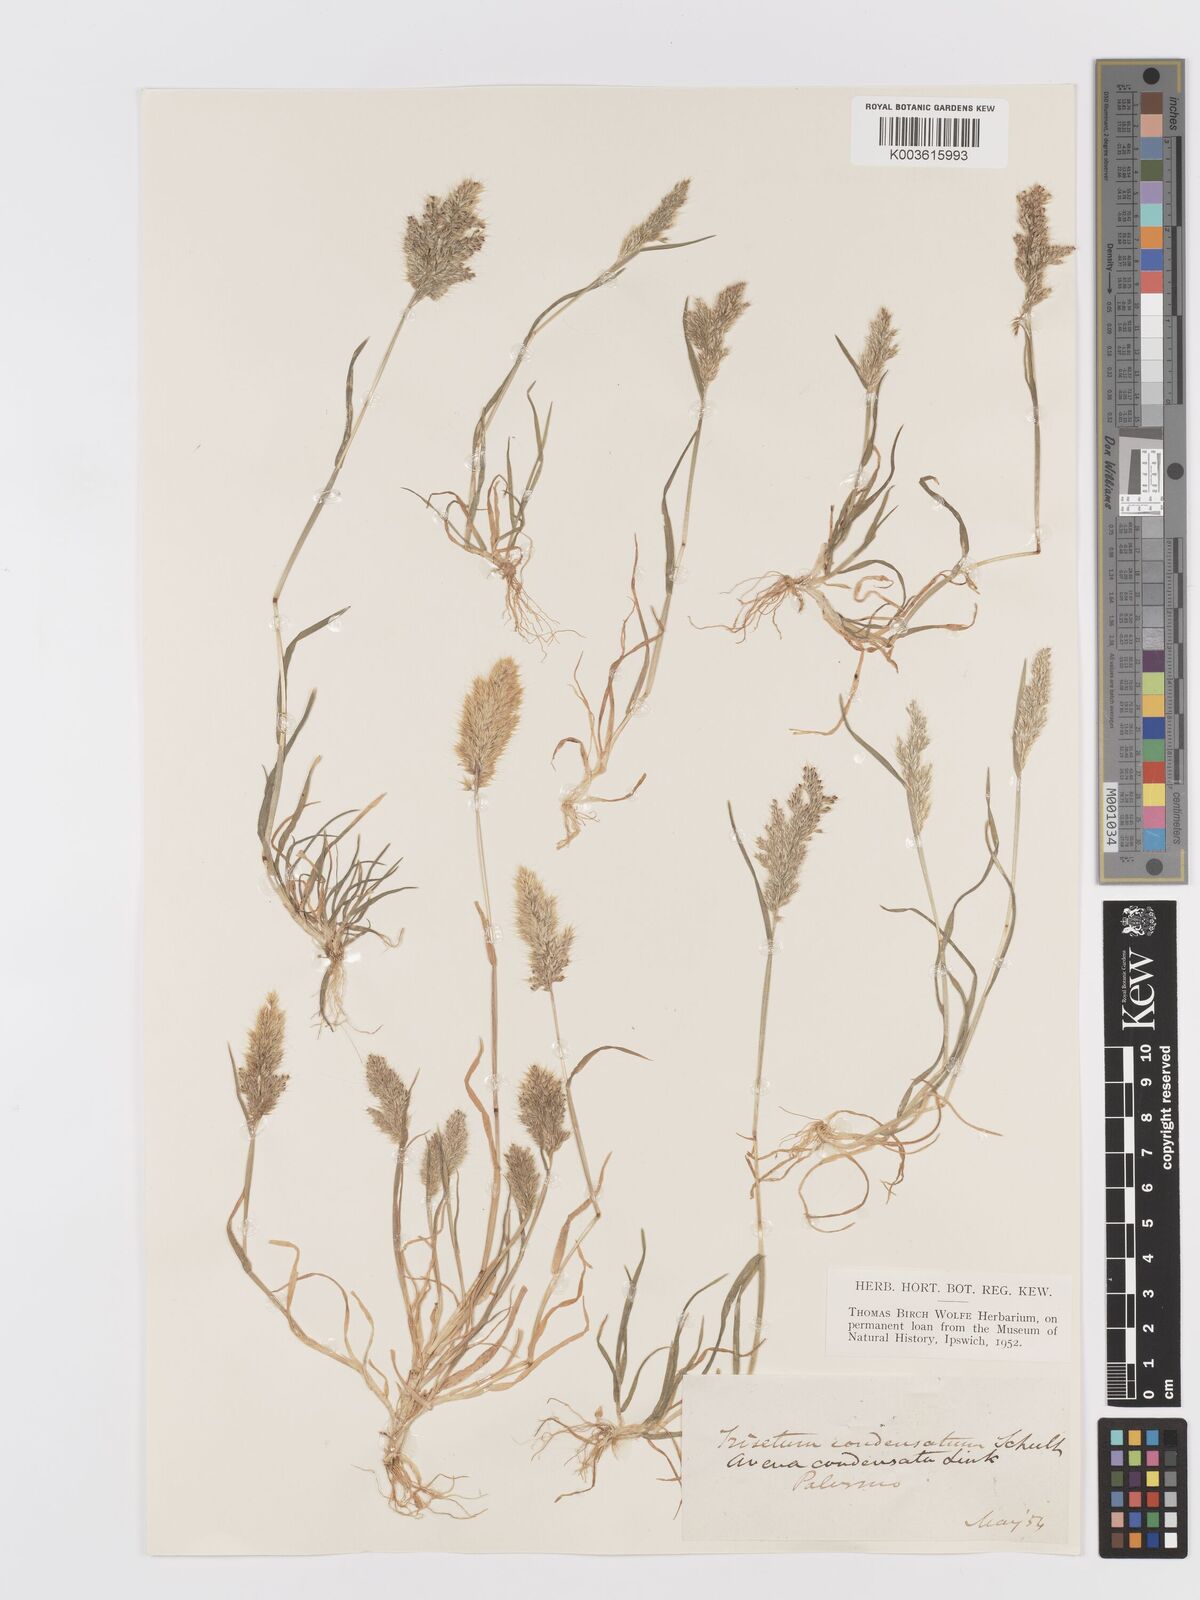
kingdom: Plantae
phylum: Tracheophyta
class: Liliopsida
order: Poales
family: Poaceae
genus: Trisetaria
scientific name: Trisetaria aurea
